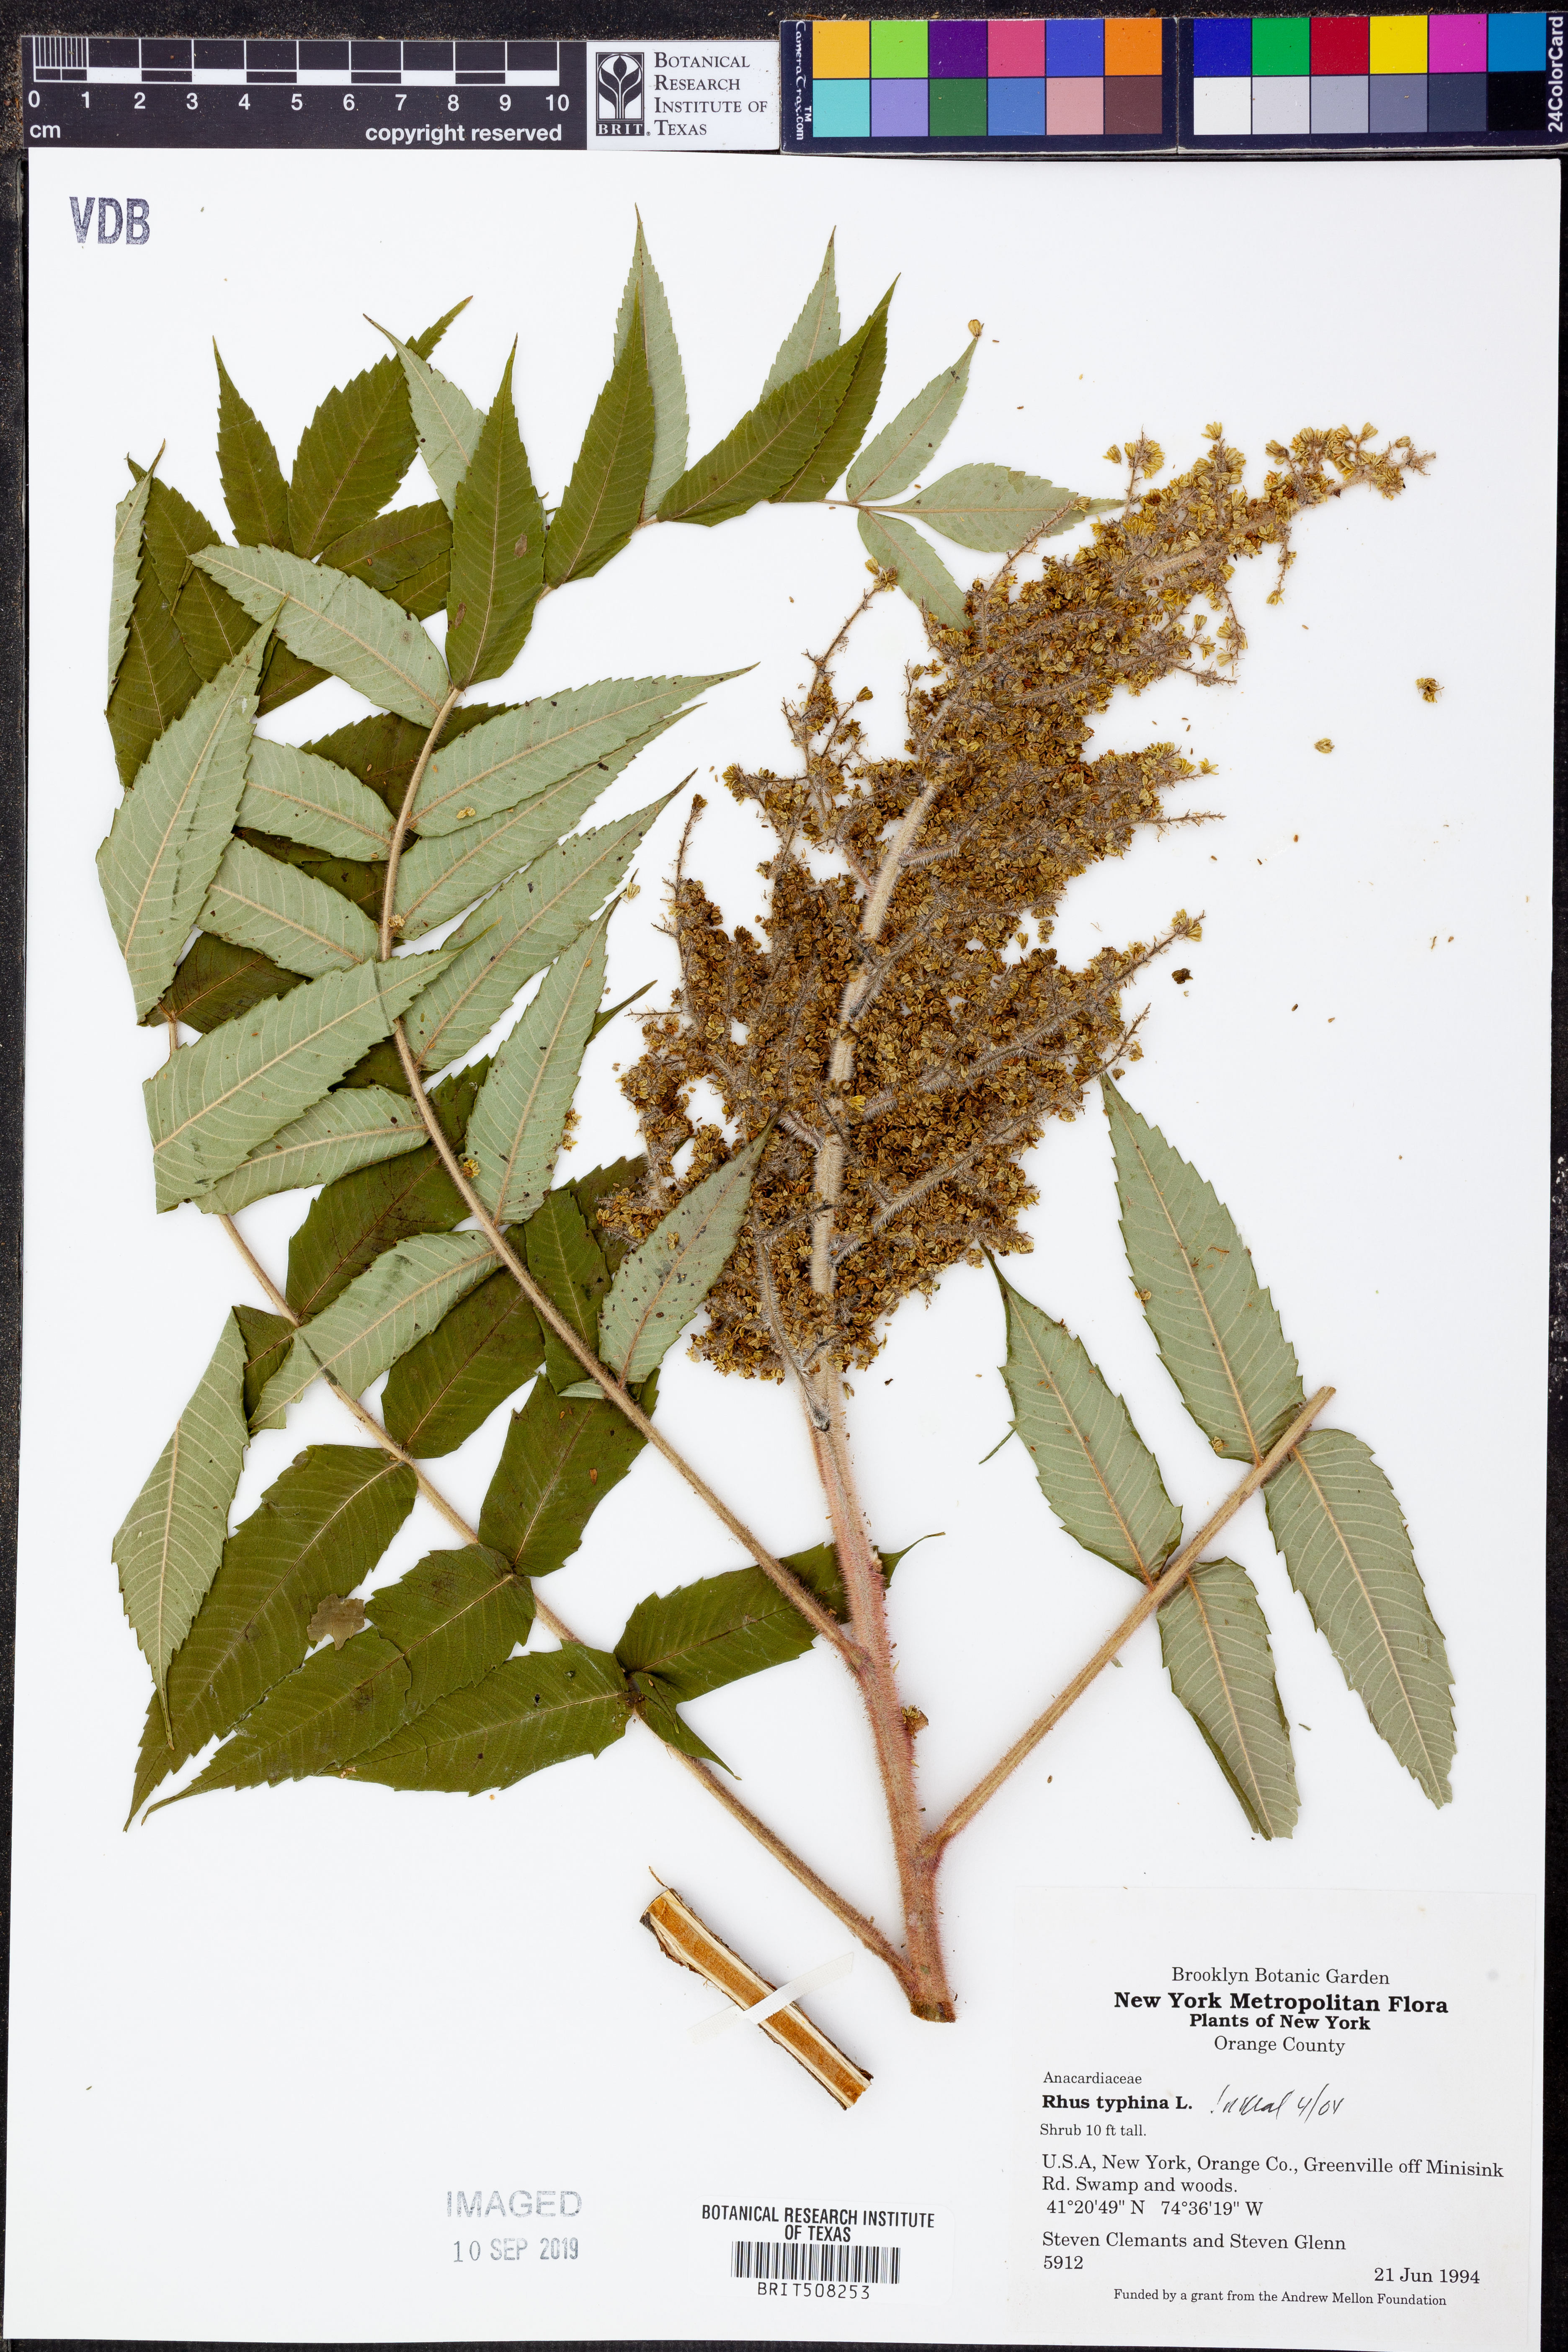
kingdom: Plantae
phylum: Tracheophyta
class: Magnoliopsida
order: Sapindales
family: Anacardiaceae
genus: Rhus
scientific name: Rhus typhina
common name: Staghorn sumac
